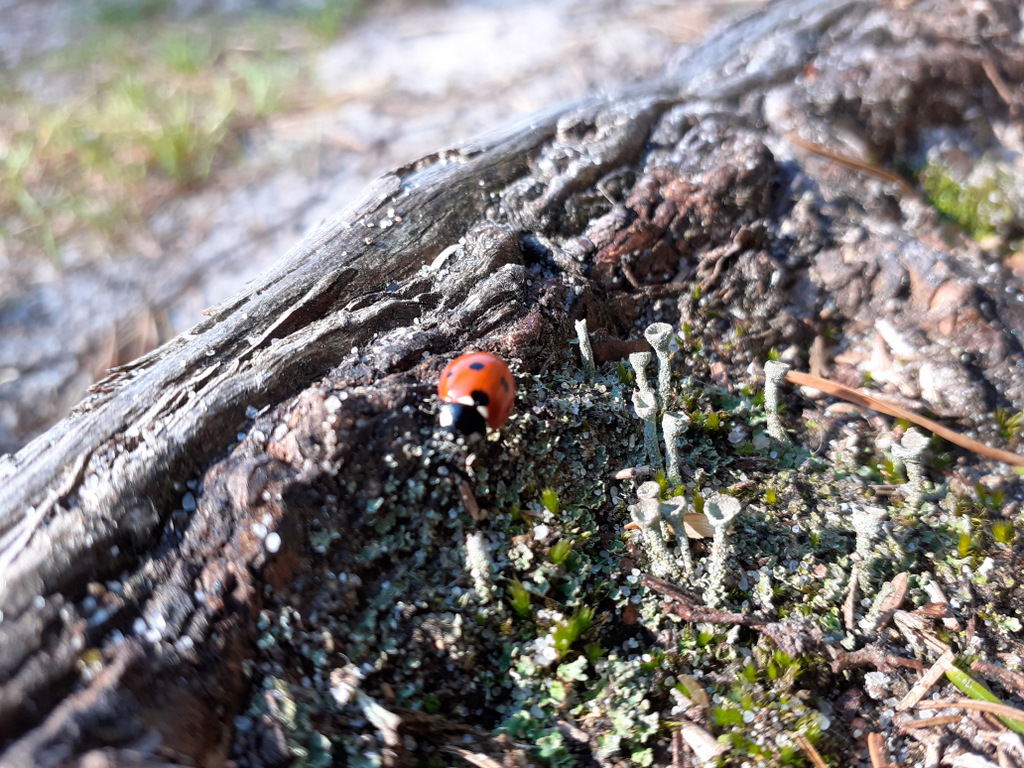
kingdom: Fungi
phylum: Ascomycota
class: Lecanoromycetes
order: Lecanorales
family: Cladoniaceae
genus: Cladonia
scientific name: Cladonia
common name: brungrøn bægerlav
